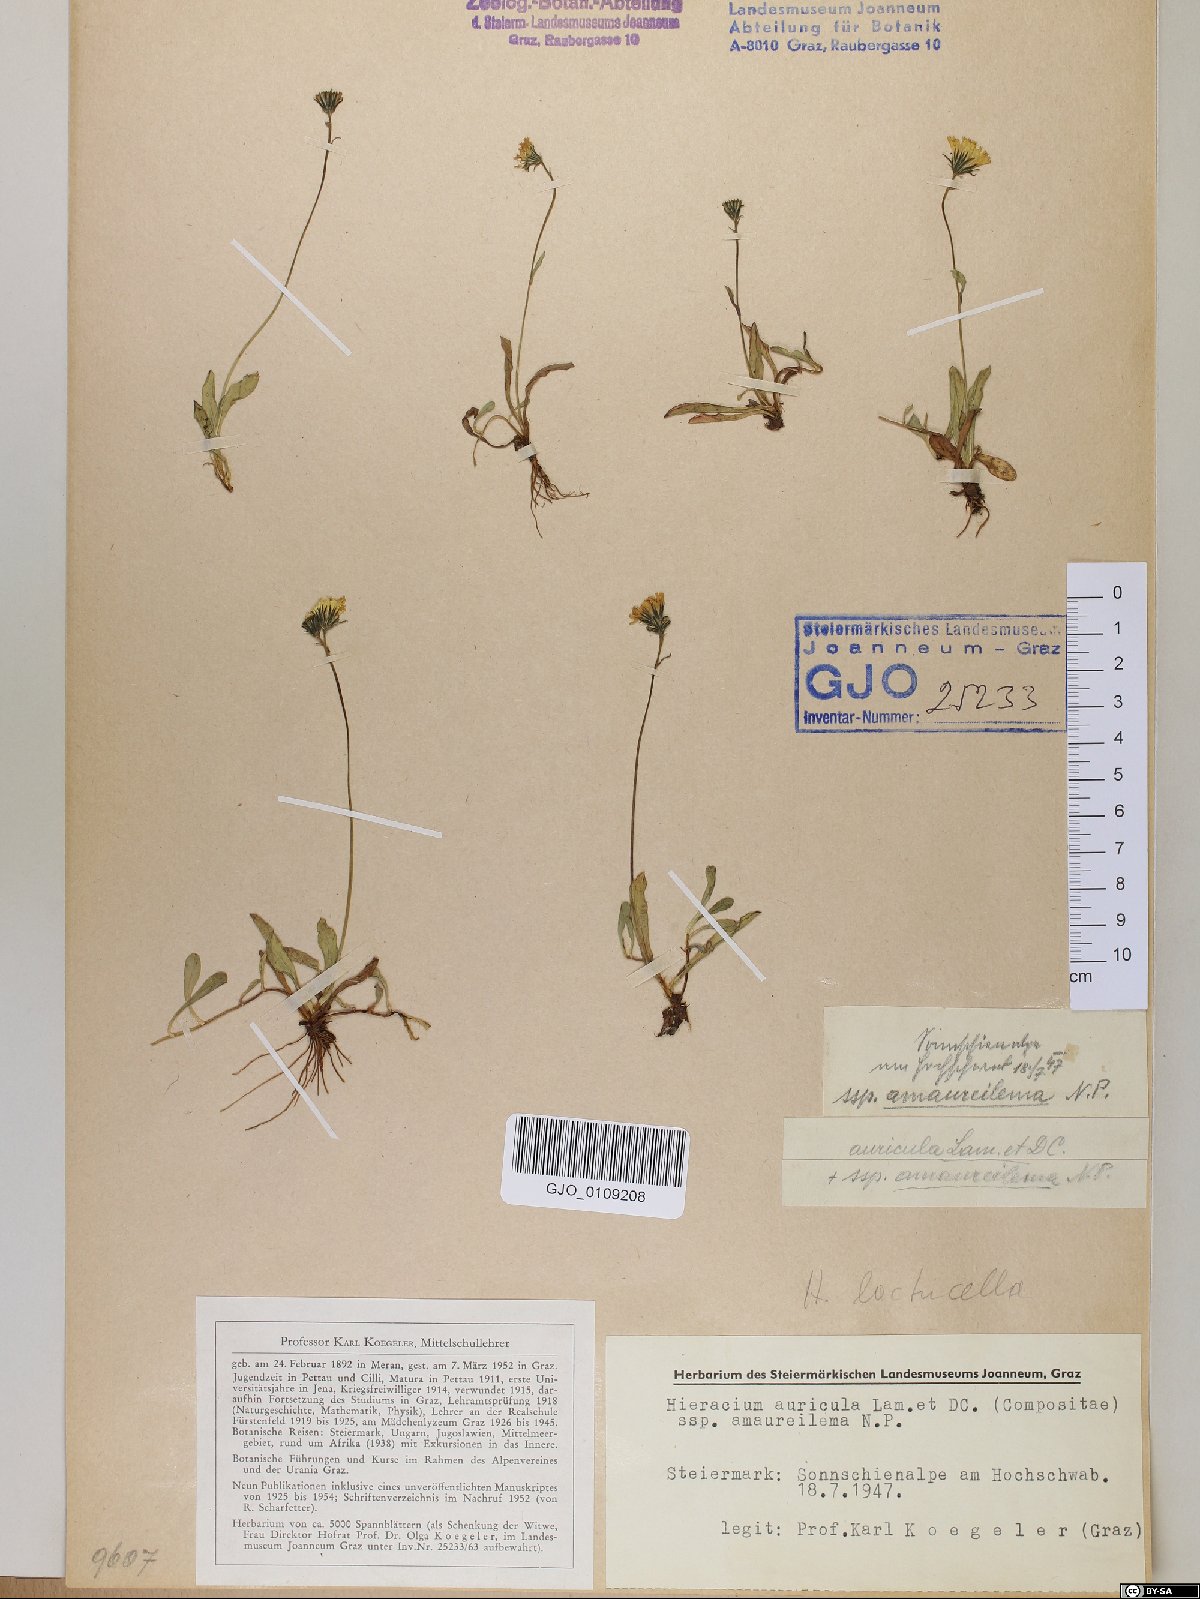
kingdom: Plantae
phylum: Tracheophyta
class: Magnoliopsida
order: Asterales
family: Asteraceae
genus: Hieracium
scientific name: Hieracium auricula
